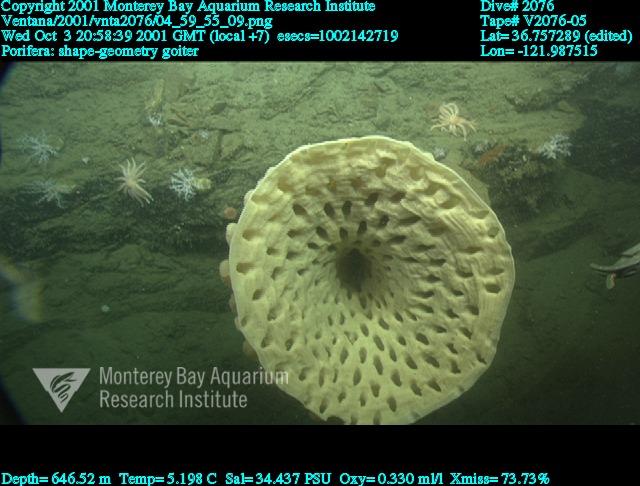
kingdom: Animalia
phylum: Porifera
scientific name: Porifera
